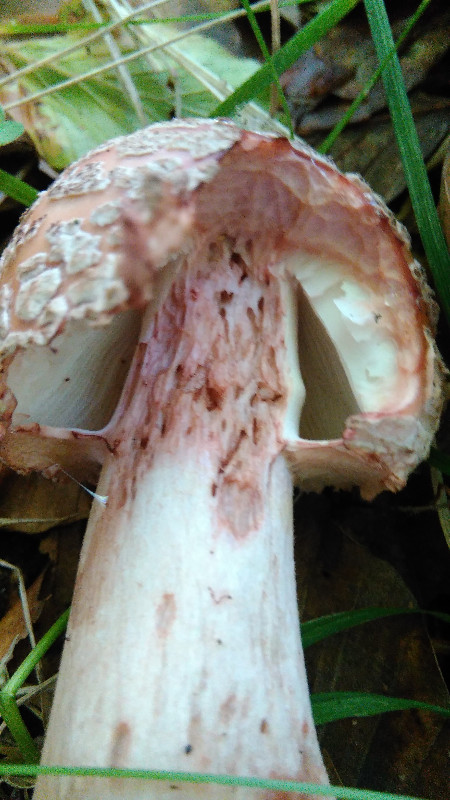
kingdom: Fungi
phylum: Basidiomycota
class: Agaricomycetes
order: Agaricales
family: Amanitaceae
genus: Amanita
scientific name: Amanita rubescens
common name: rødmende fluesvamp
